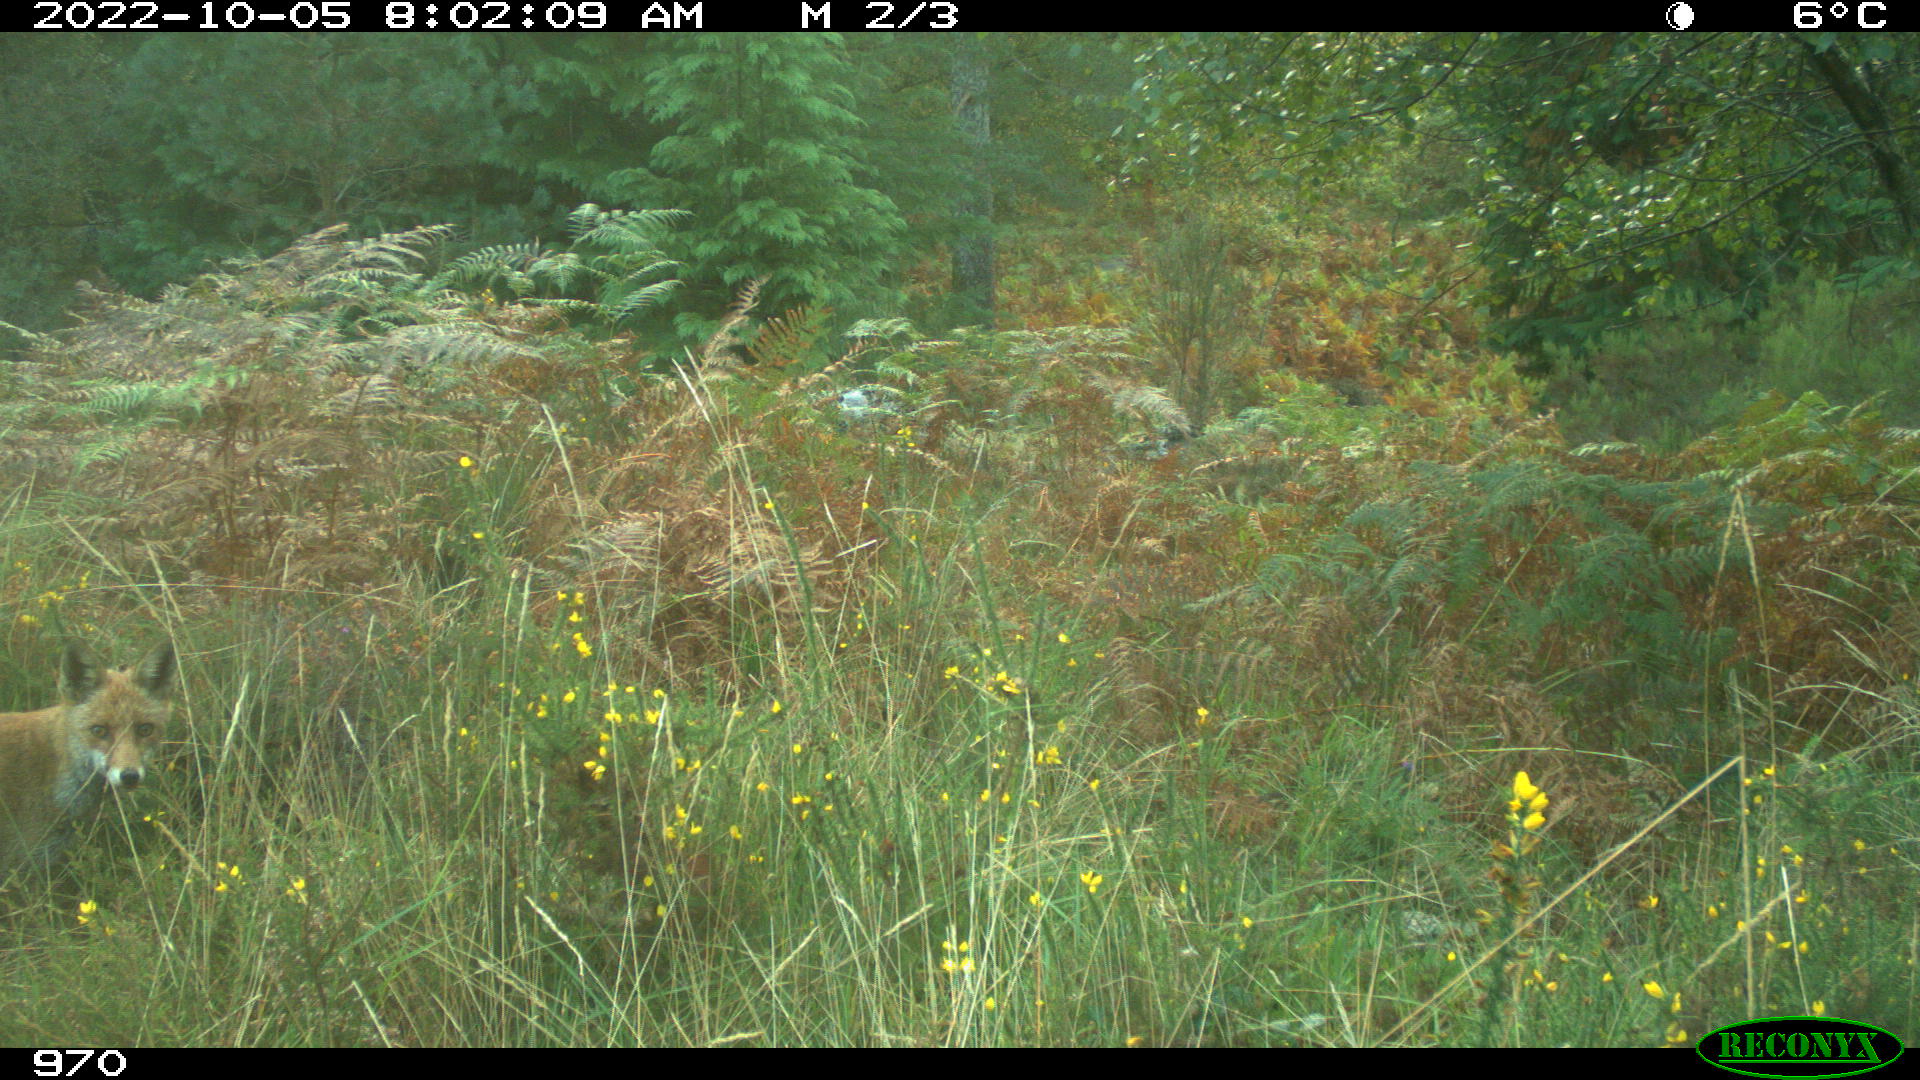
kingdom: Animalia
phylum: Chordata
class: Mammalia
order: Carnivora
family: Canidae
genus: Vulpes
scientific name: Vulpes vulpes
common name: Red fox
